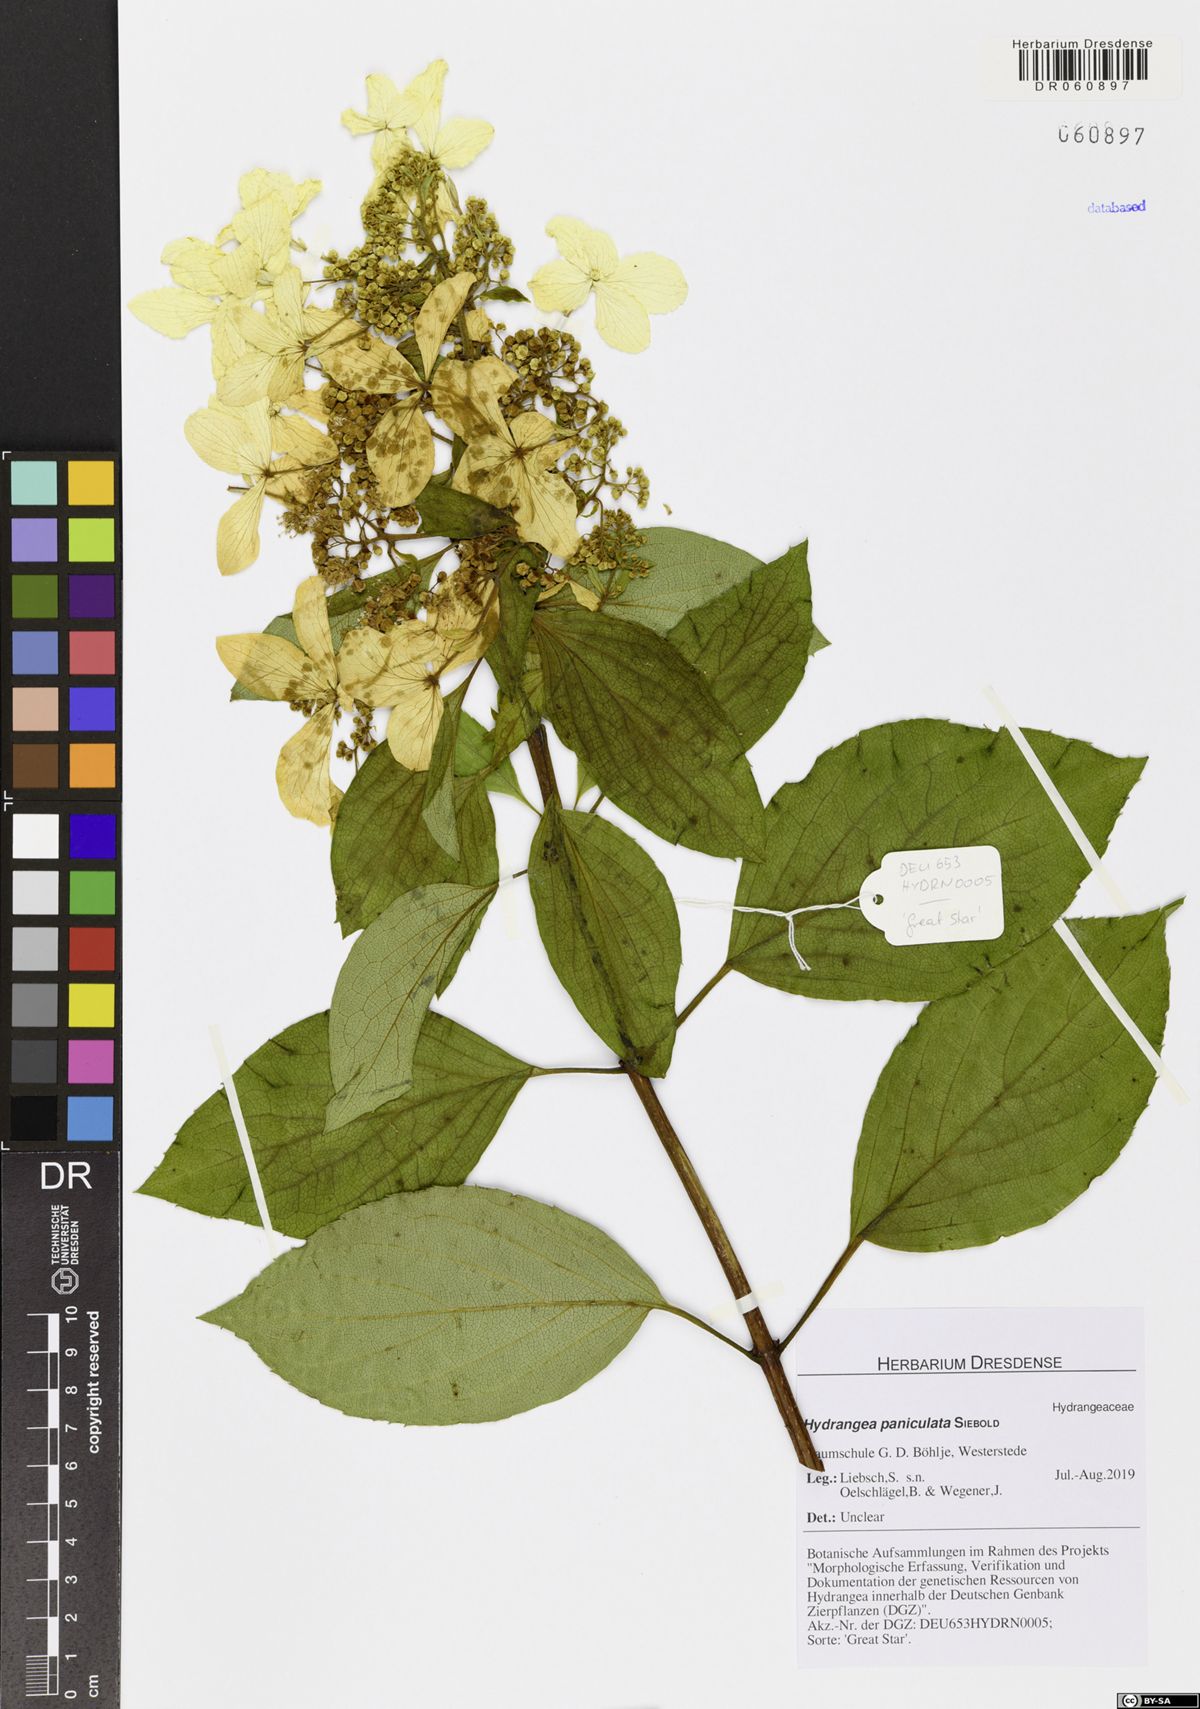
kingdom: Plantae
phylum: Tracheophyta
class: Magnoliopsida
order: Cornales
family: Hydrangeaceae
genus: Hydrangea
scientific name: Hydrangea paniculata
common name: Panicled hydrangea
